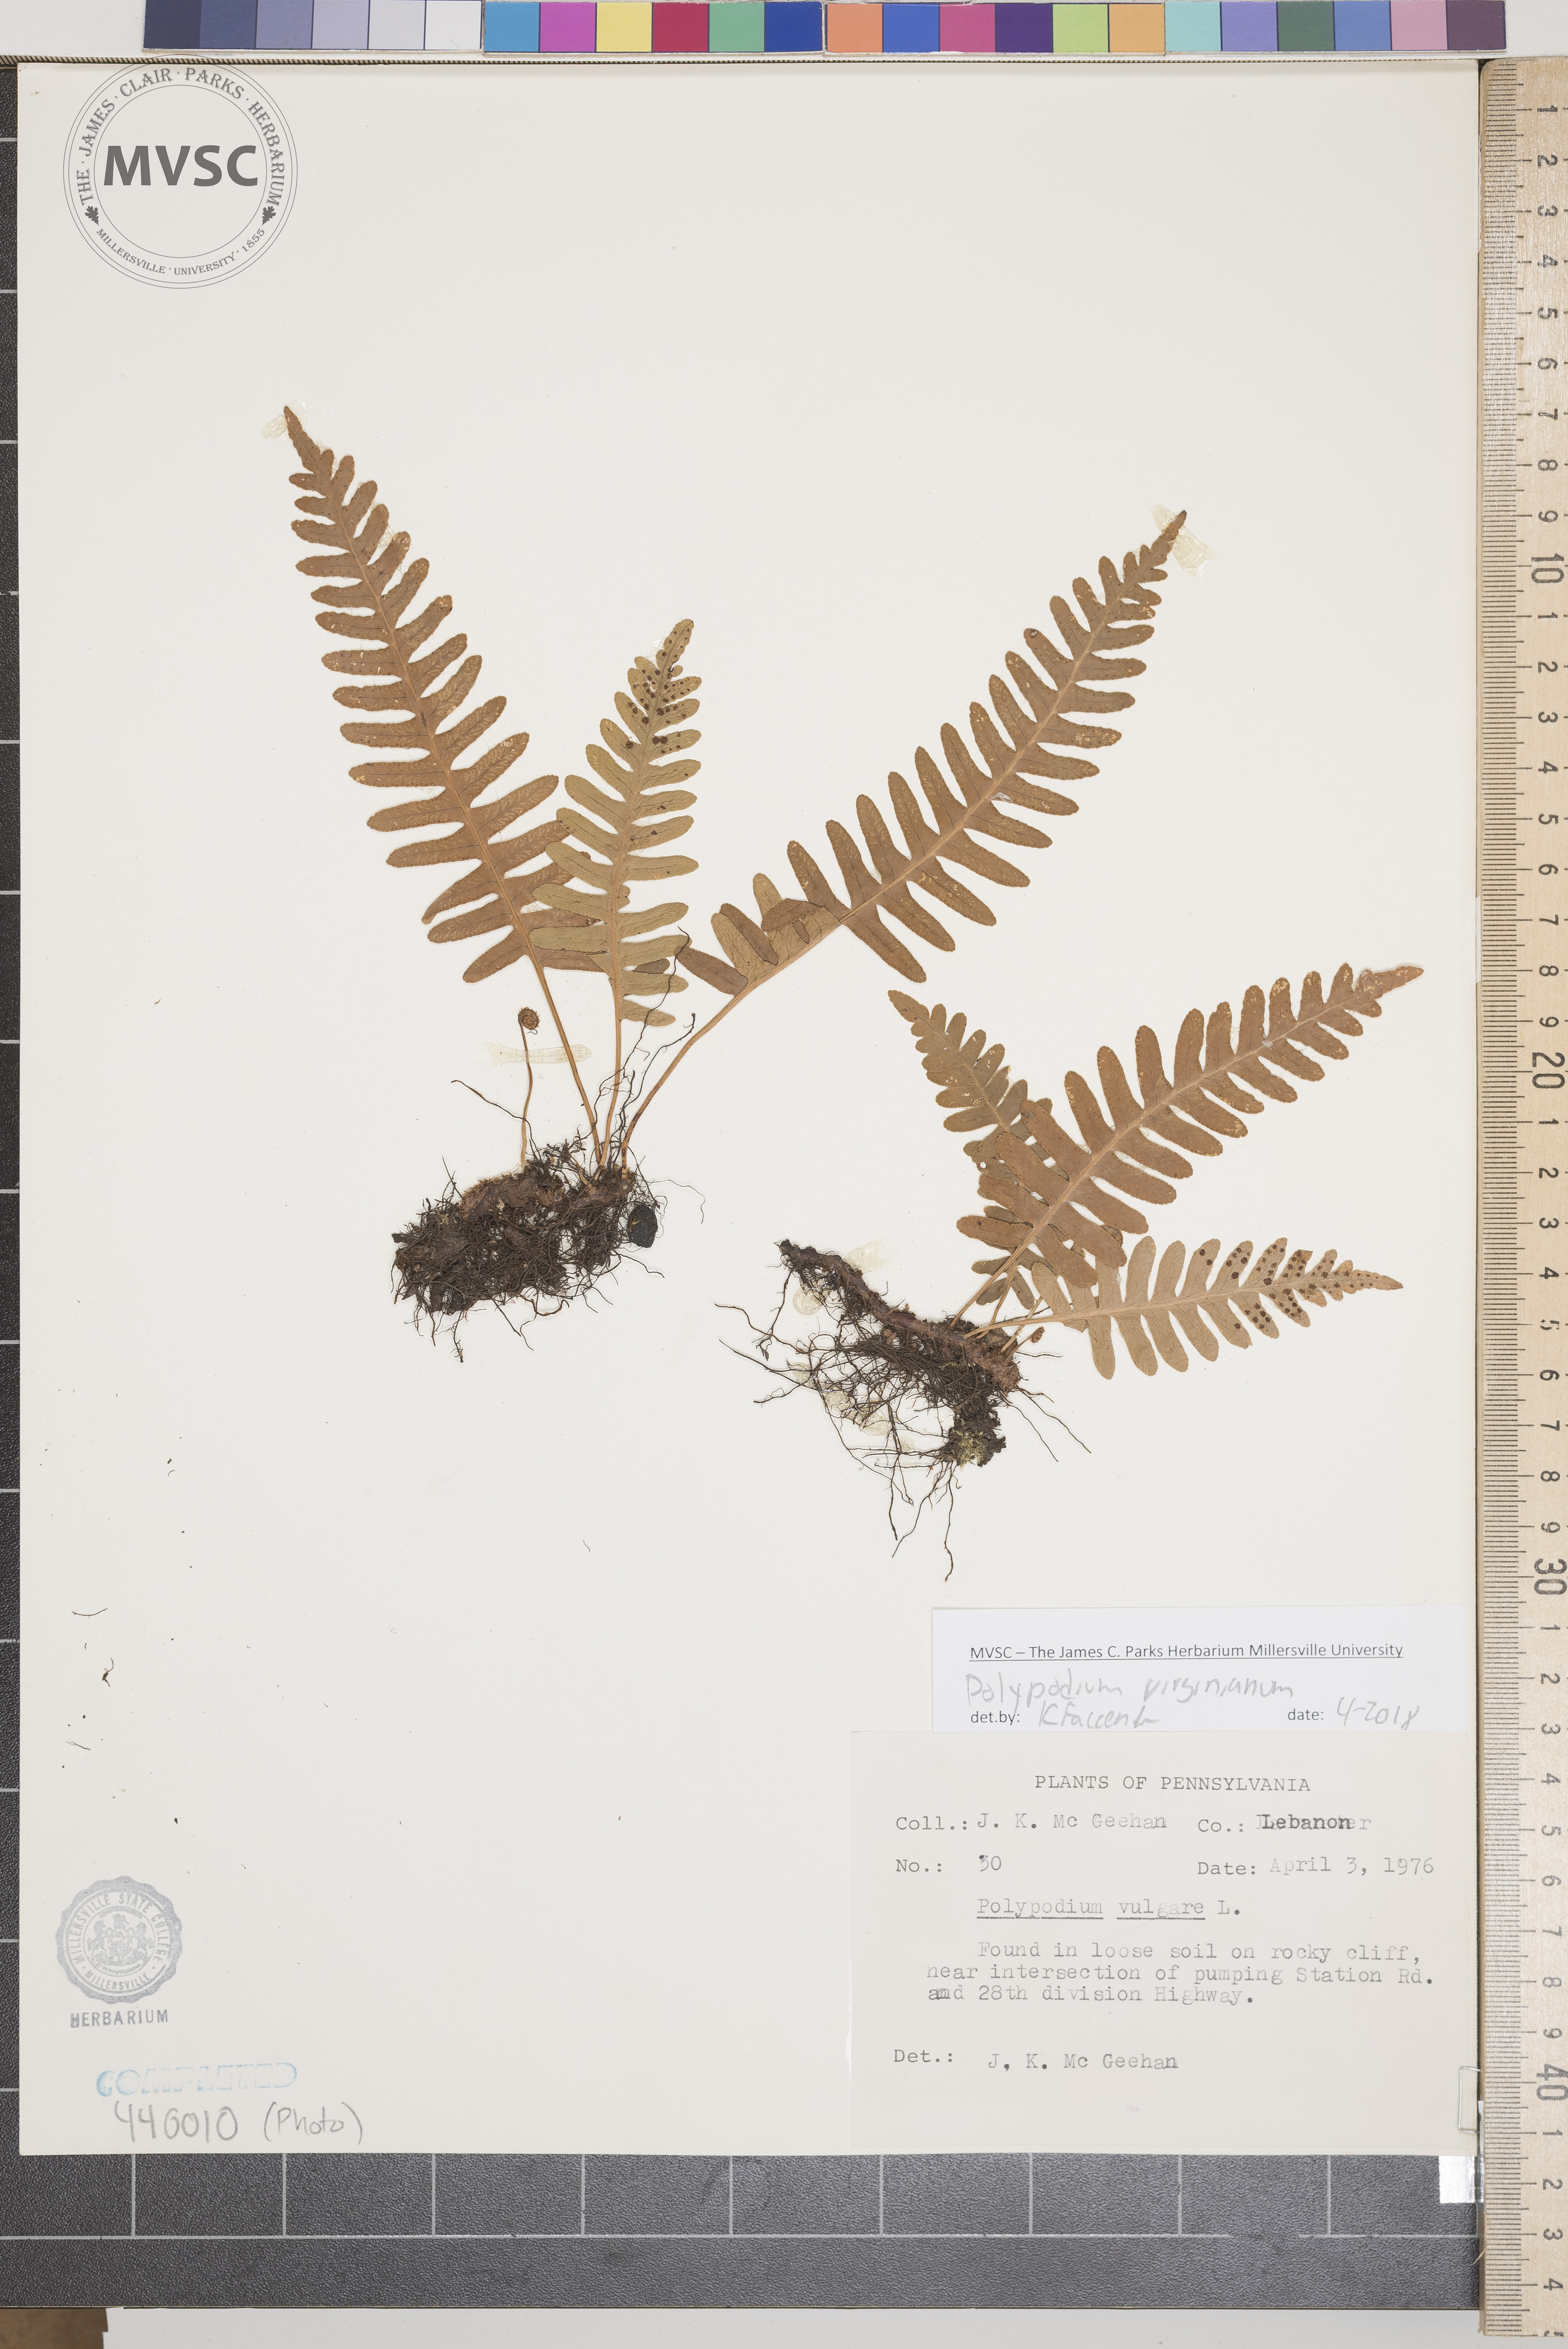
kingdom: Plantae
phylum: Tracheophyta
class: Polypodiopsida
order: Polypodiales
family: Polypodiaceae
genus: Polypodium
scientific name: Polypodium virginianum
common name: American wall fern
